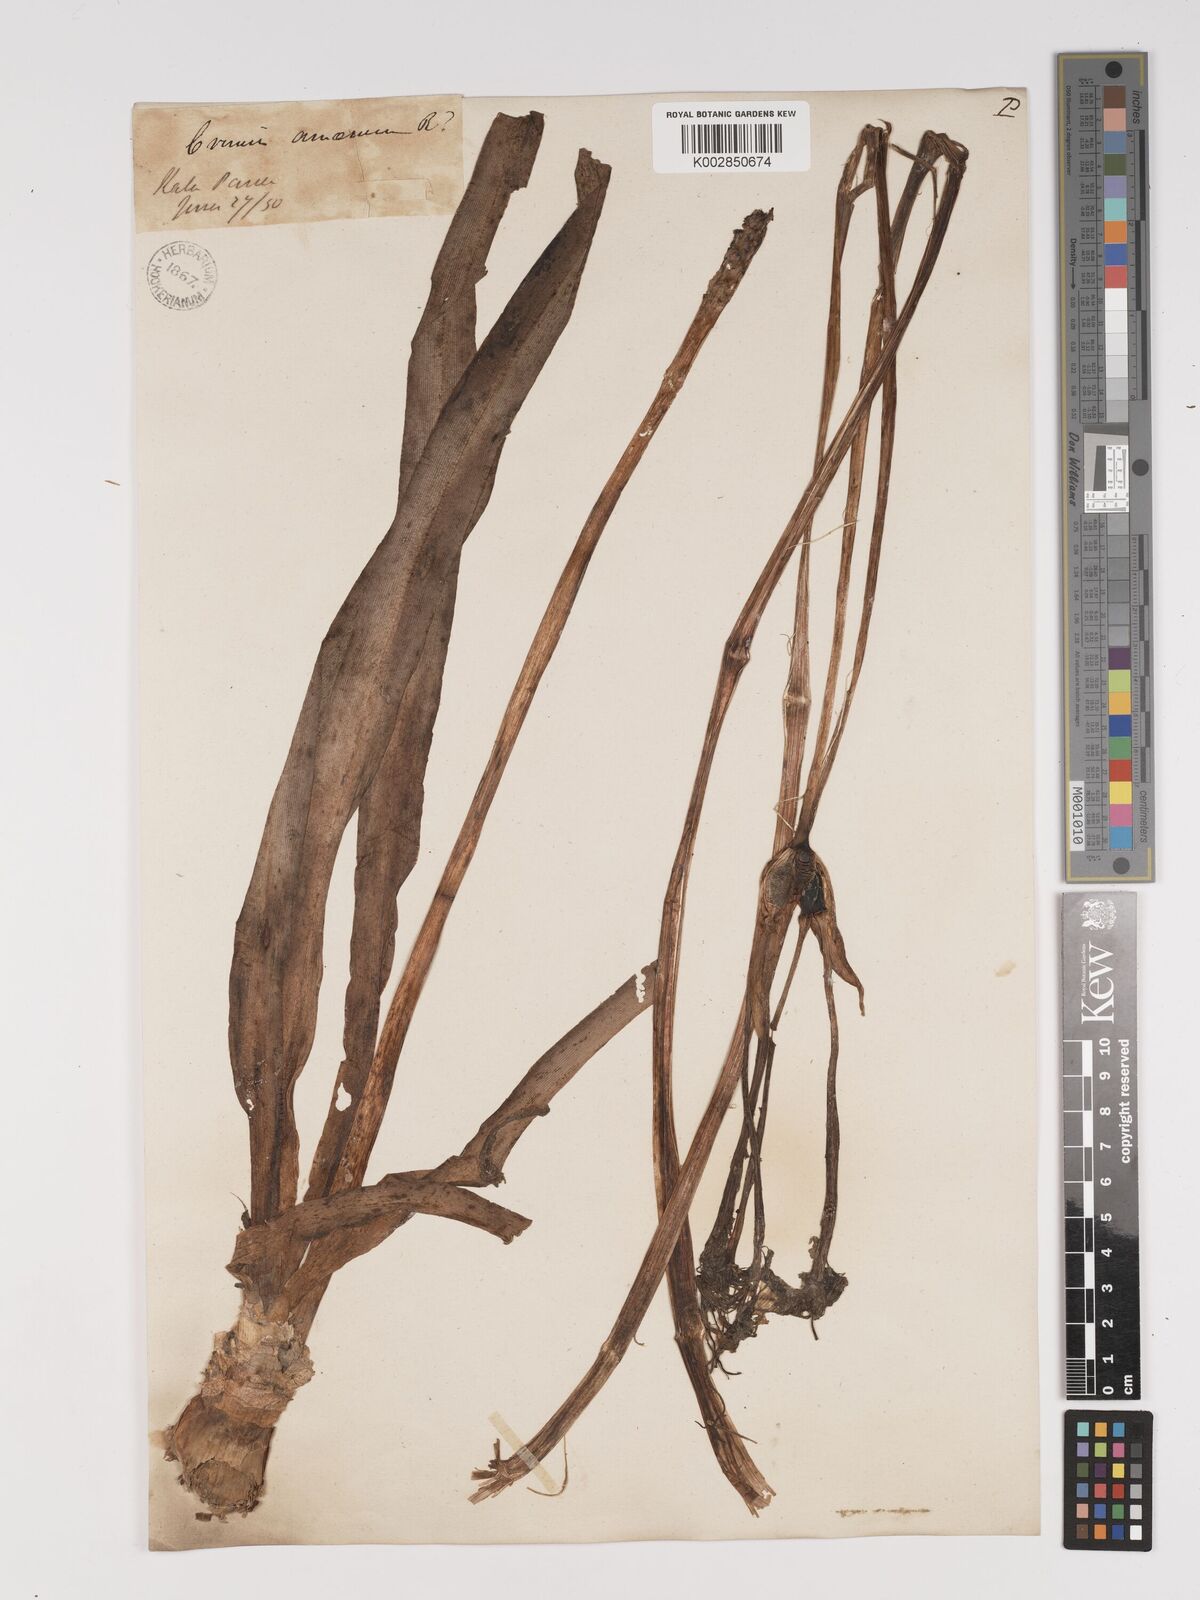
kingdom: Plantae
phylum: Tracheophyta
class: Liliopsida
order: Asparagales
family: Amaryllidaceae
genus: Crinum
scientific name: Crinum amoenum
